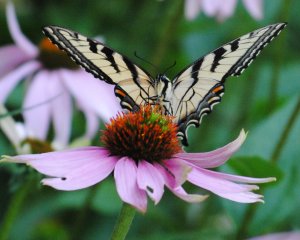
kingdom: Animalia
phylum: Arthropoda
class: Insecta
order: Lepidoptera
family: Papilionidae
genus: Pterourus
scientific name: Pterourus glaucus
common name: Eastern Tiger Swallowtail
